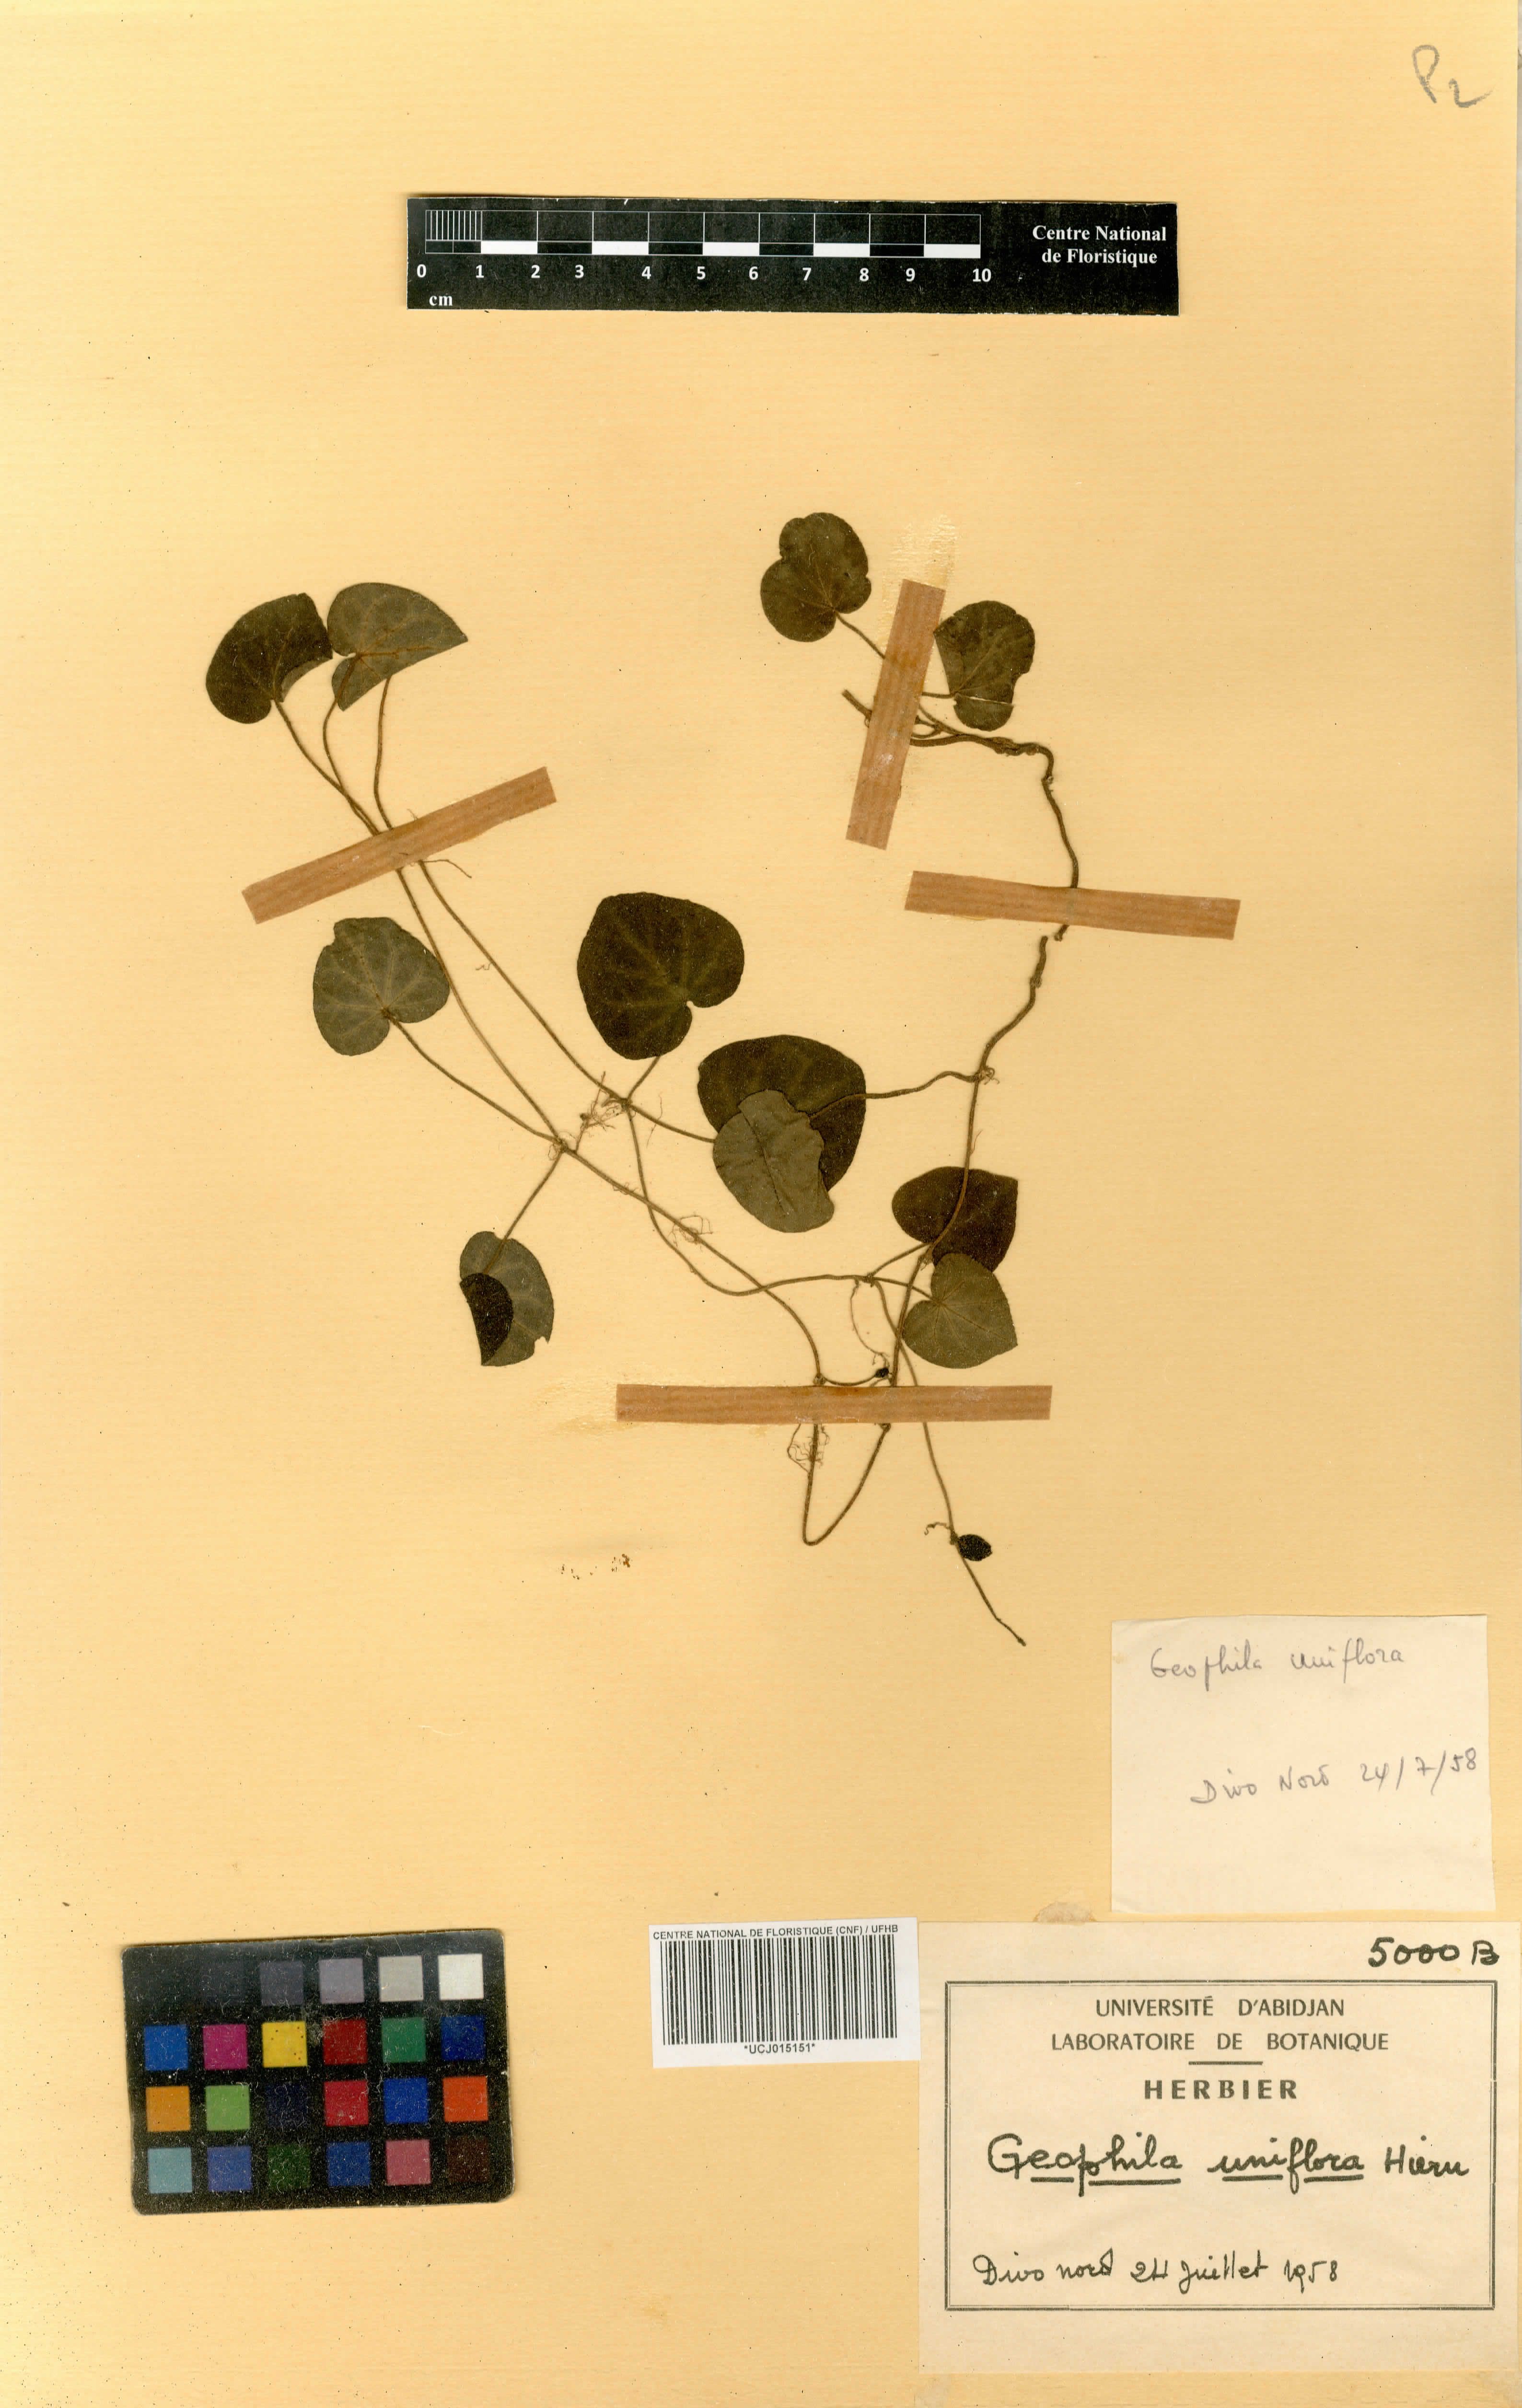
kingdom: Plantae
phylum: Tracheophyta
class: Magnoliopsida
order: Gentianales
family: Rubiaceae
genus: Geophila
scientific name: Geophila herbacea
